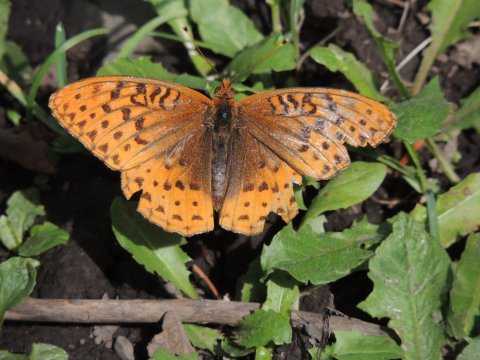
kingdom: Animalia
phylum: Arthropoda
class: Insecta
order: Lepidoptera
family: Nymphalidae
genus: Speyeria
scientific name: Speyeria cybele
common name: Great Spangled Fritillary
